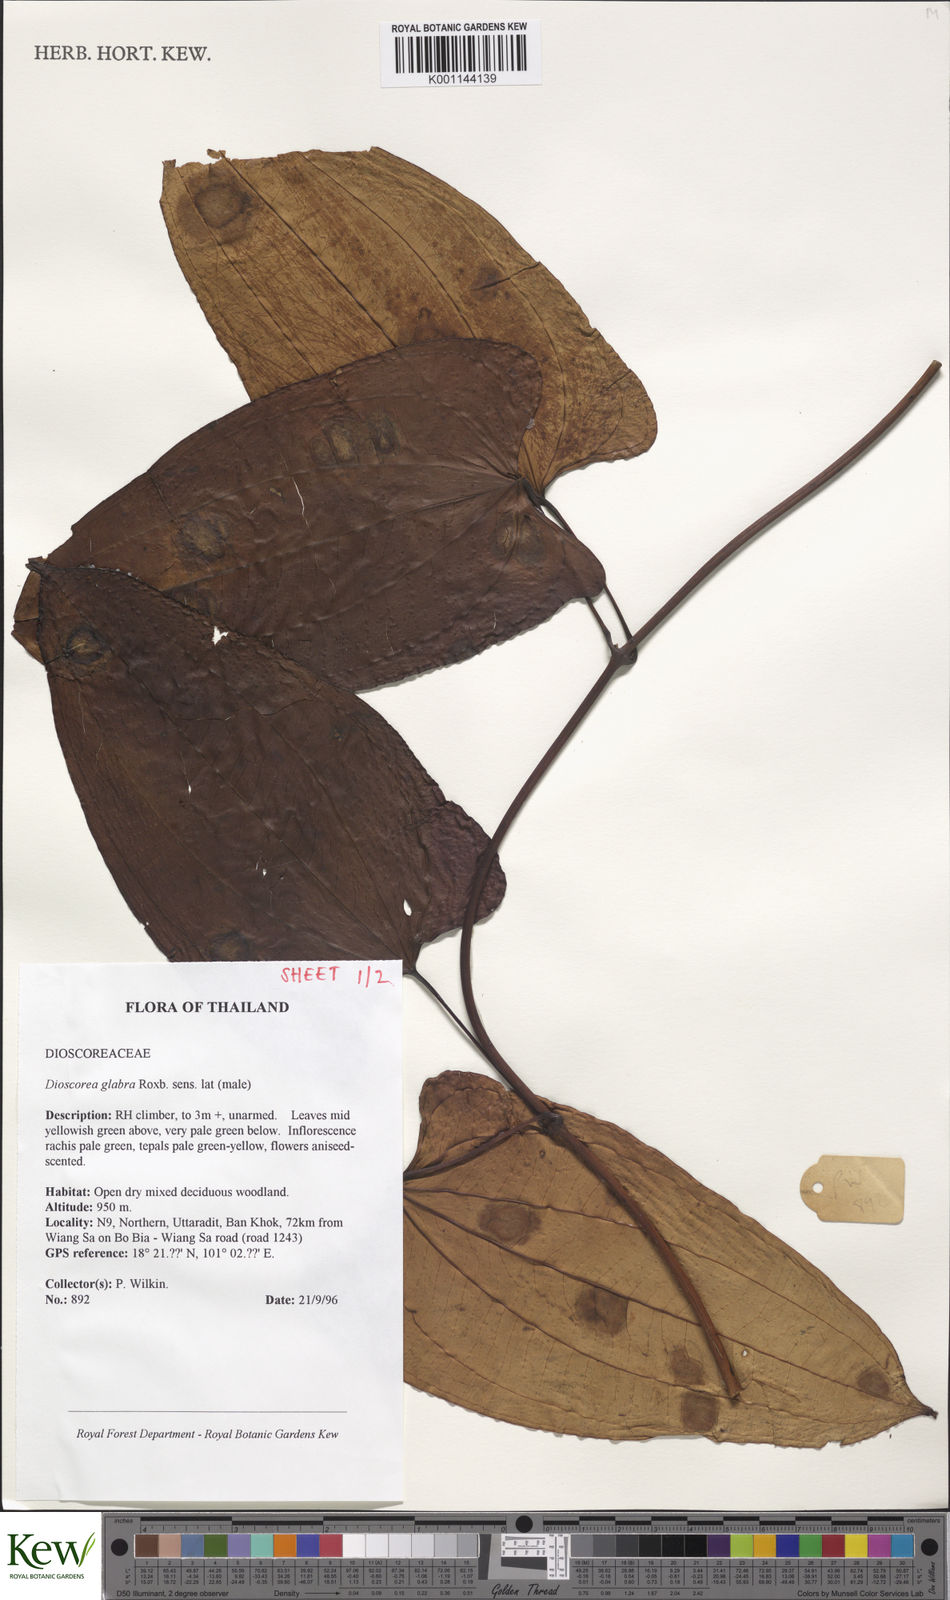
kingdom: Plantae
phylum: Tracheophyta
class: Liliopsida
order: Dioscoreales
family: Dioscoreaceae
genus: Dioscorea
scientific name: Dioscorea glabra
